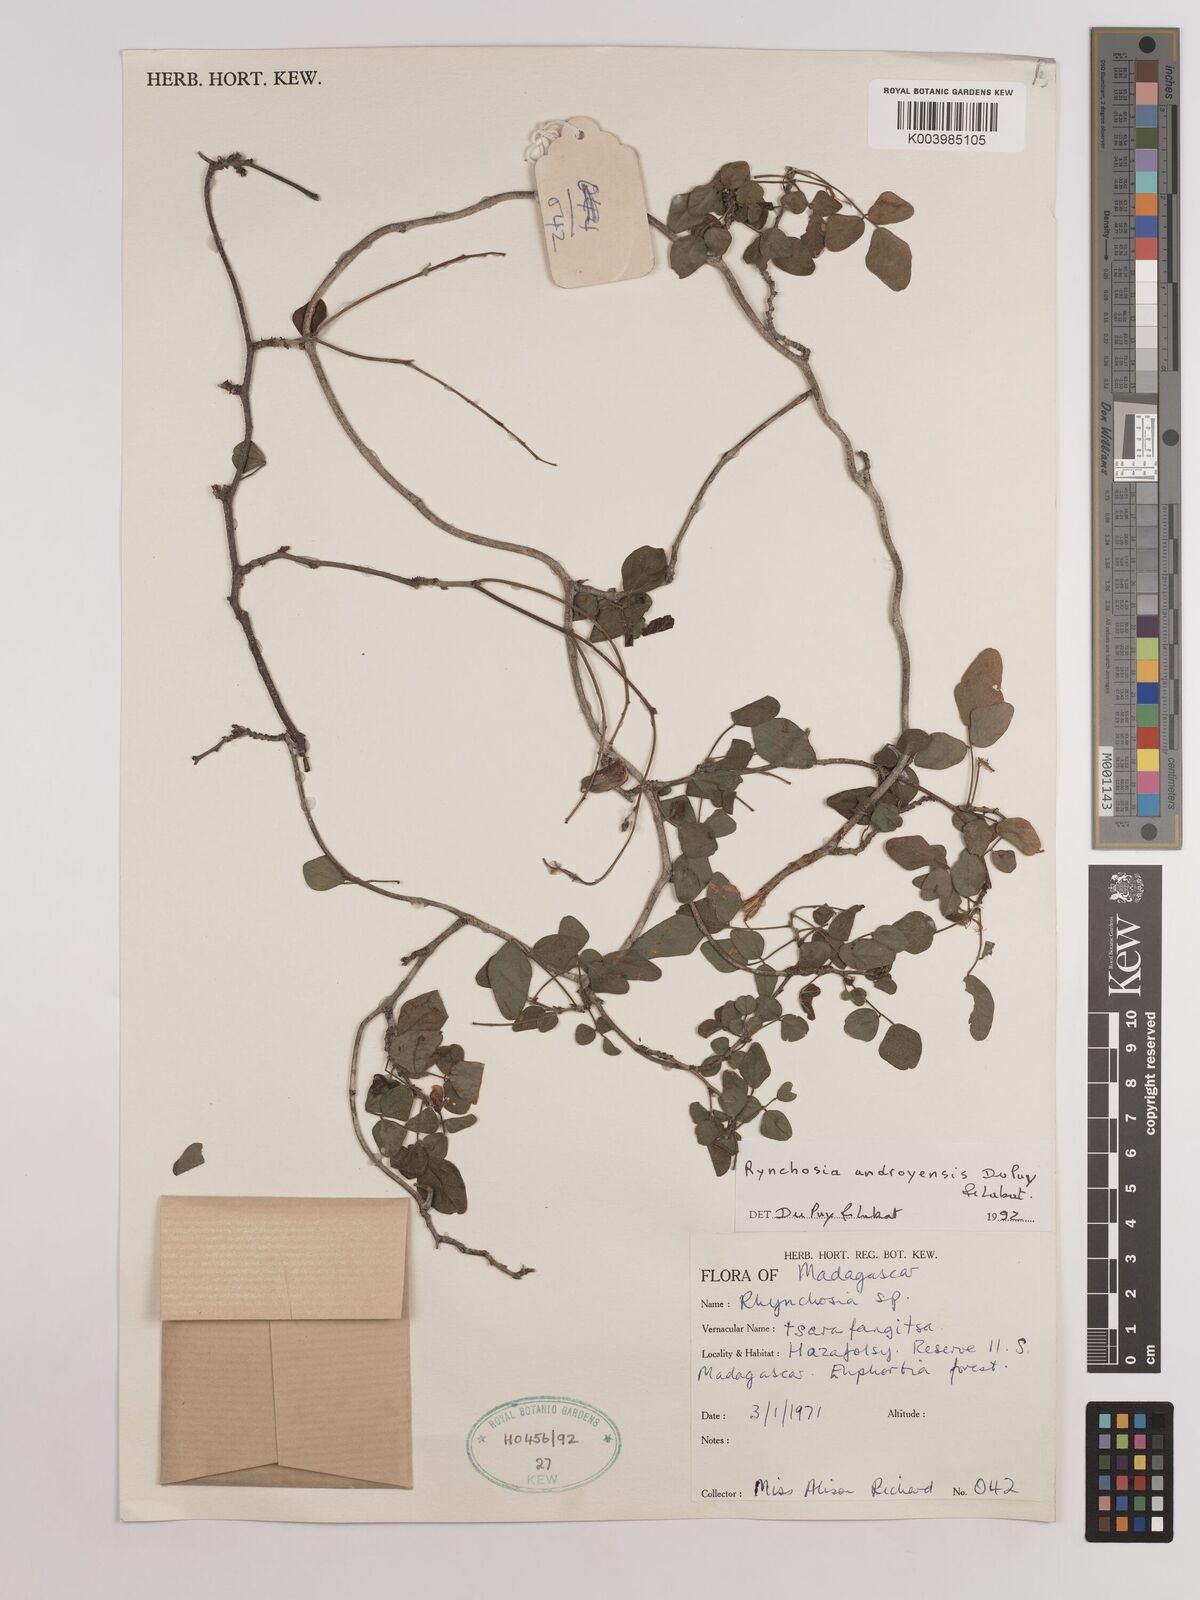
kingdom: Plantae
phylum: Tracheophyta
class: Magnoliopsida
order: Fabales
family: Fabaceae
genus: Rhynchosia
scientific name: Rhynchosia androyensis
